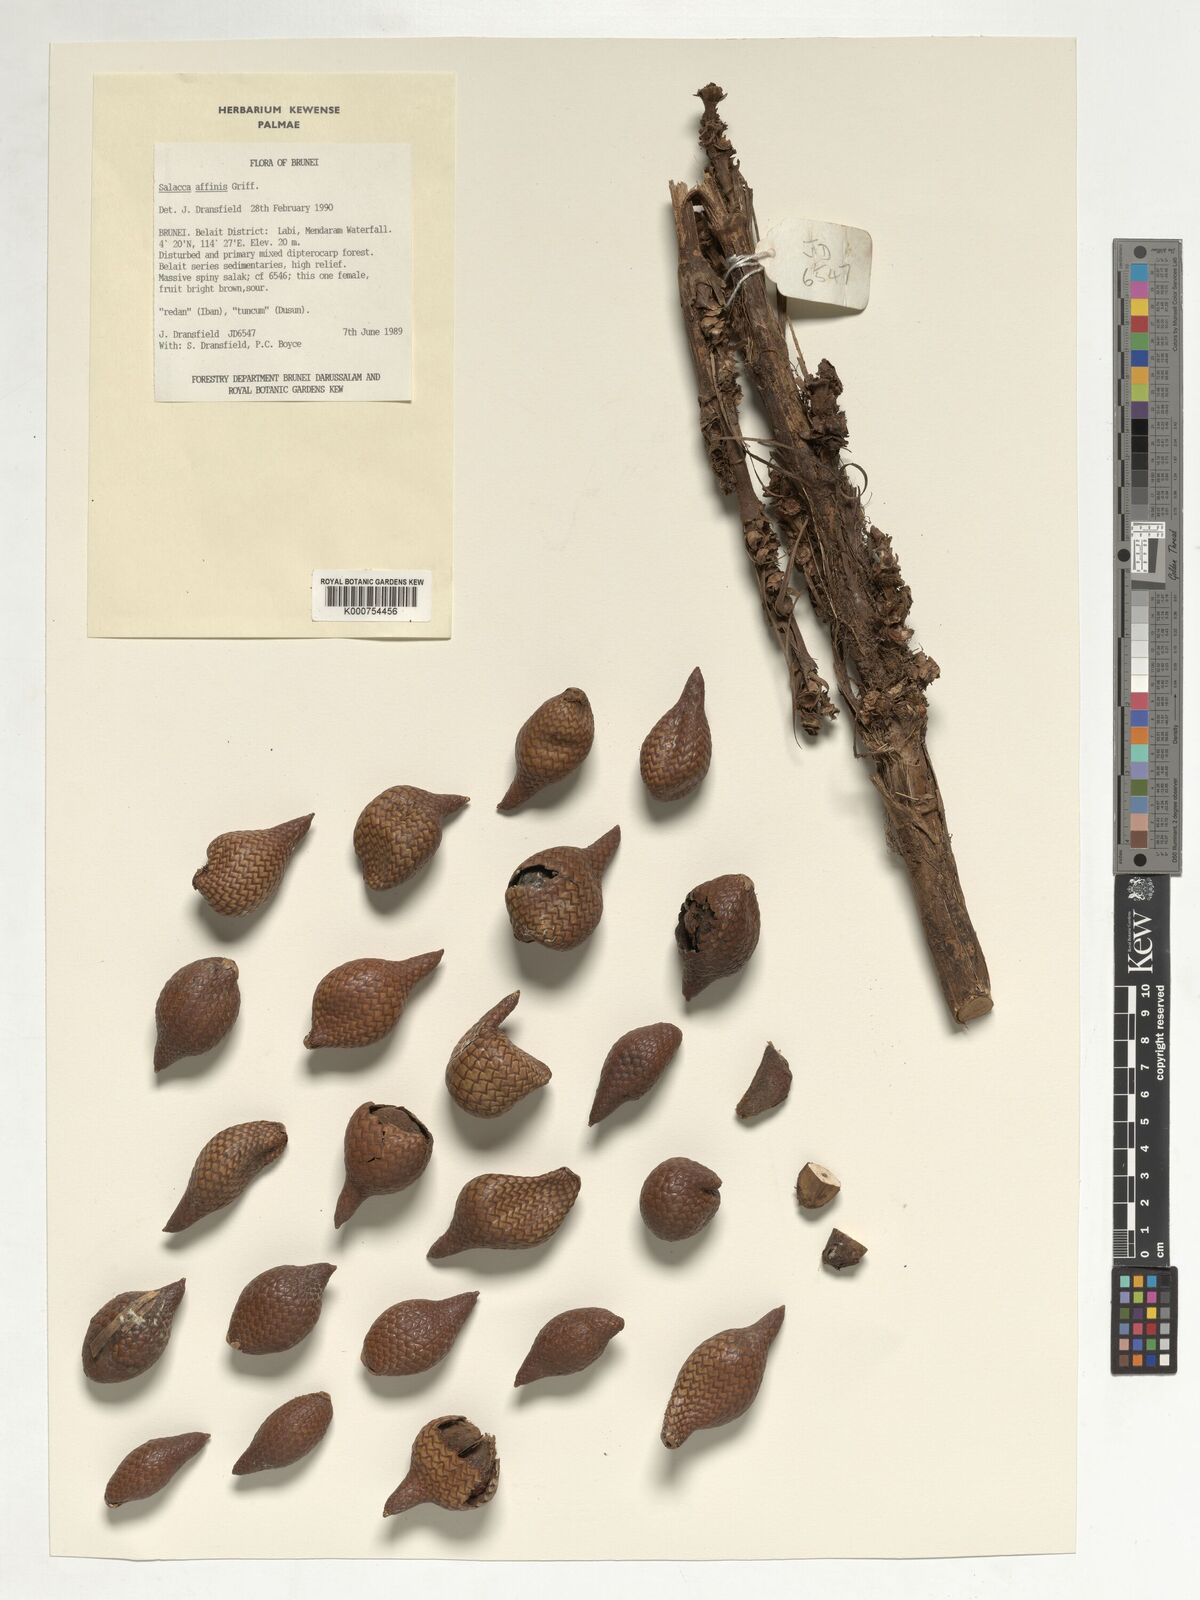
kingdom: Plantae
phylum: Tracheophyta
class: Liliopsida
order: Arecales
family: Arecaceae
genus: Salacca
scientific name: Salacca affinis
